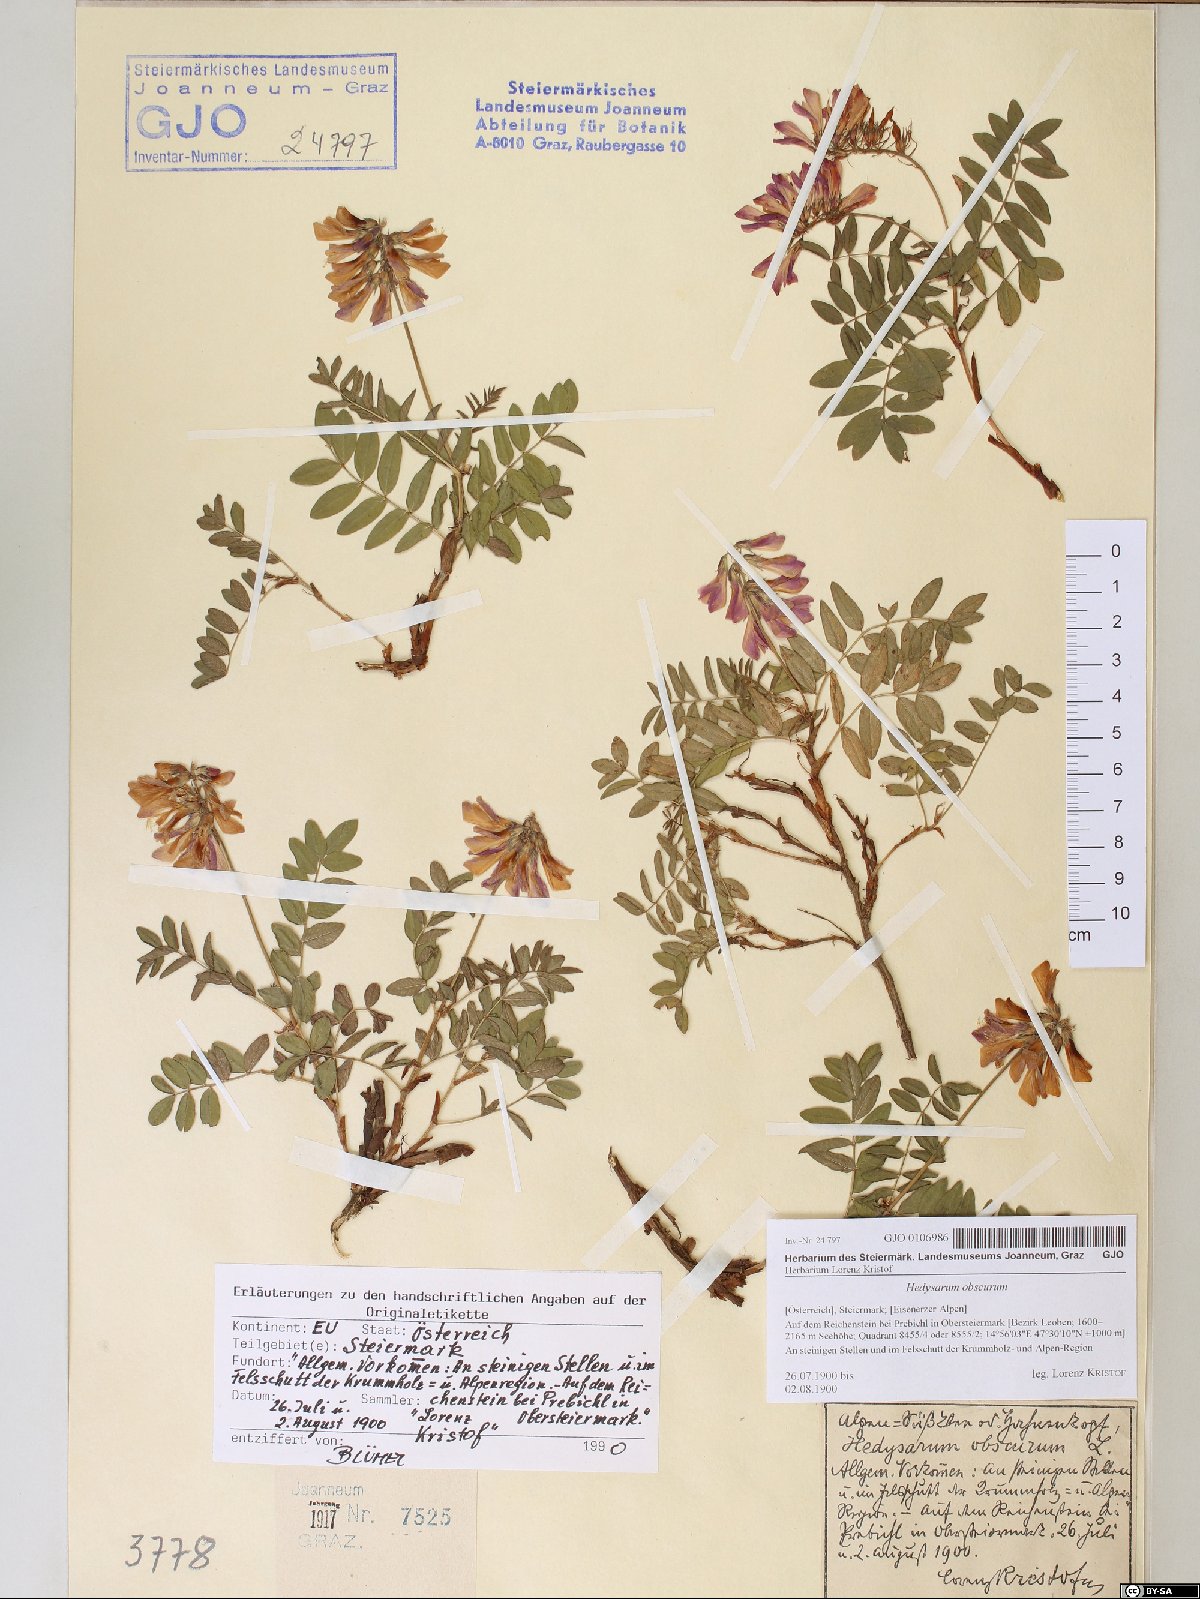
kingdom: Plantae
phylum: Tracheophyta
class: Magnoliopsida
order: Fabales
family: Fabaceae
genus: Hedysarum
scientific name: Hedysarum hedysaroides
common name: Alpine french-honeysuckle
